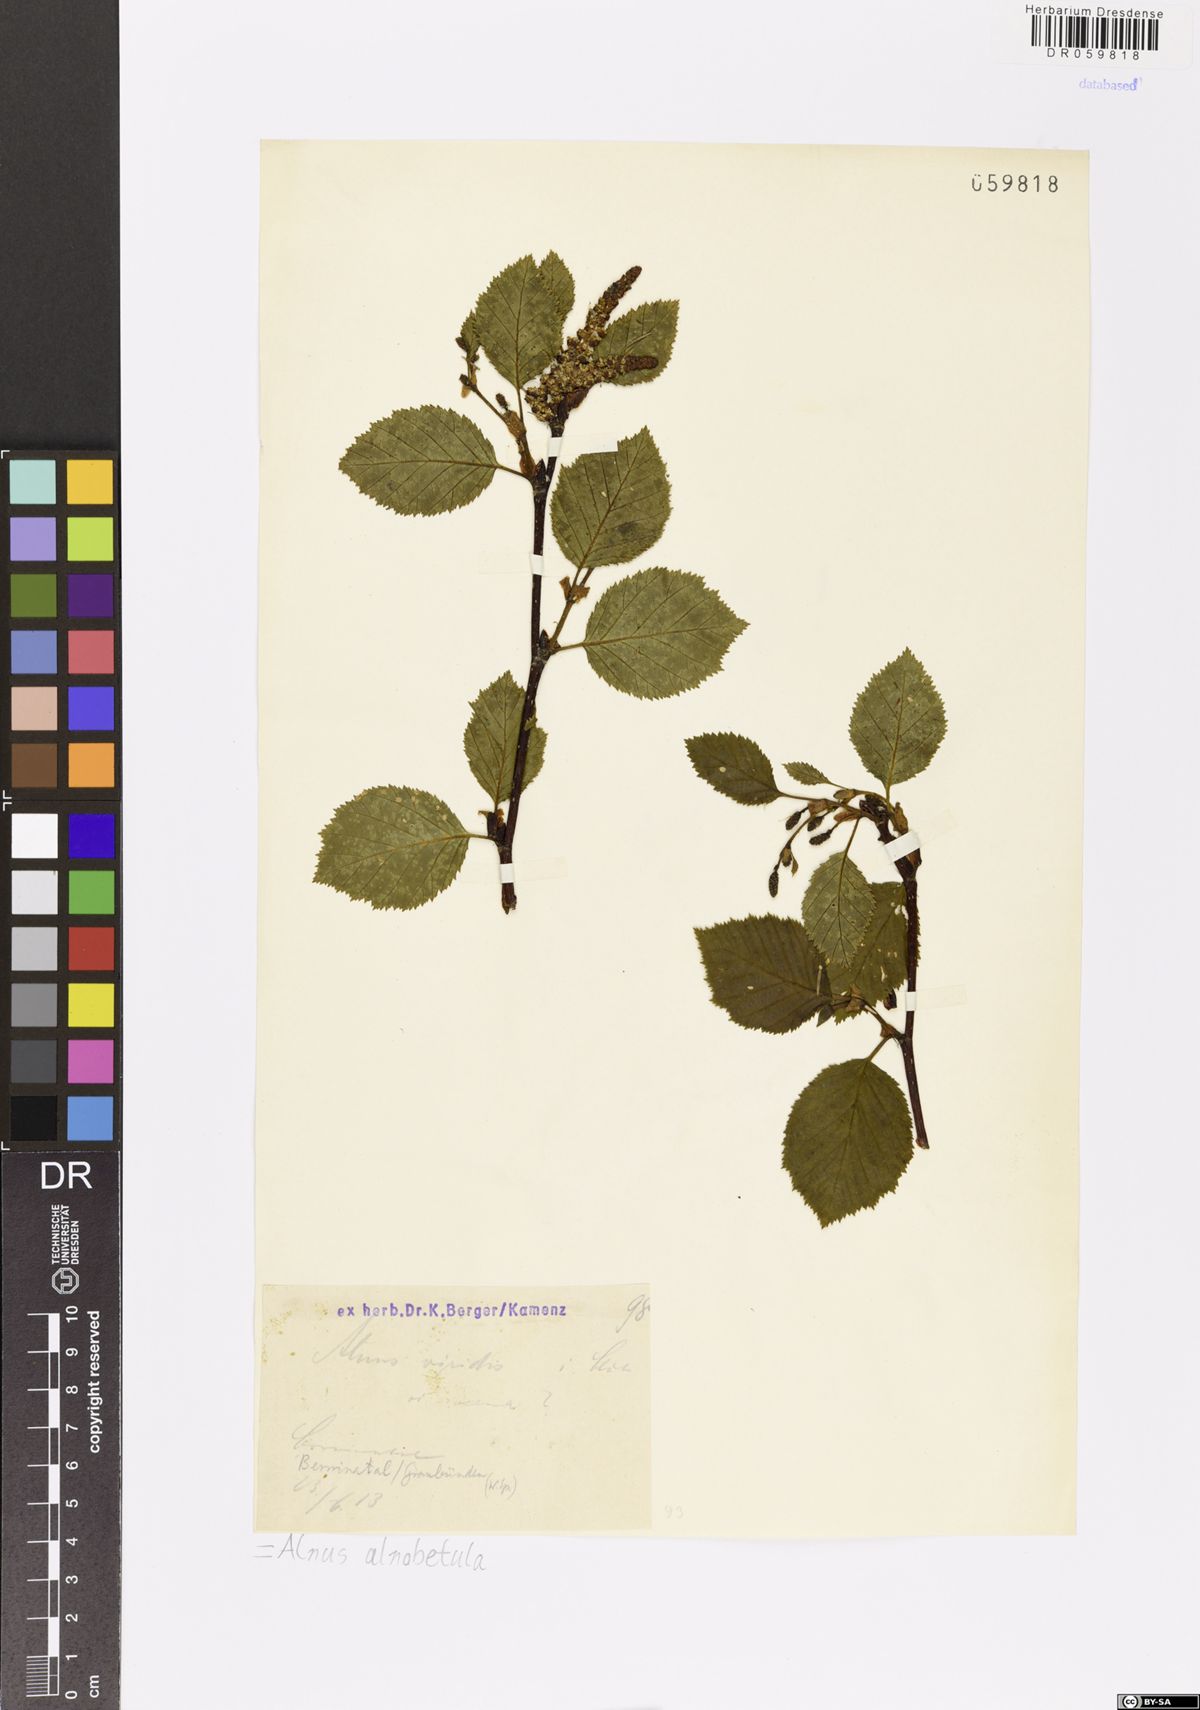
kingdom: Plantae
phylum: Tracheophyta
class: Magnoliopsida
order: Fagales
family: Betulaceae
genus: Alnus
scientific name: Alnus alnobetula
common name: Green alder
